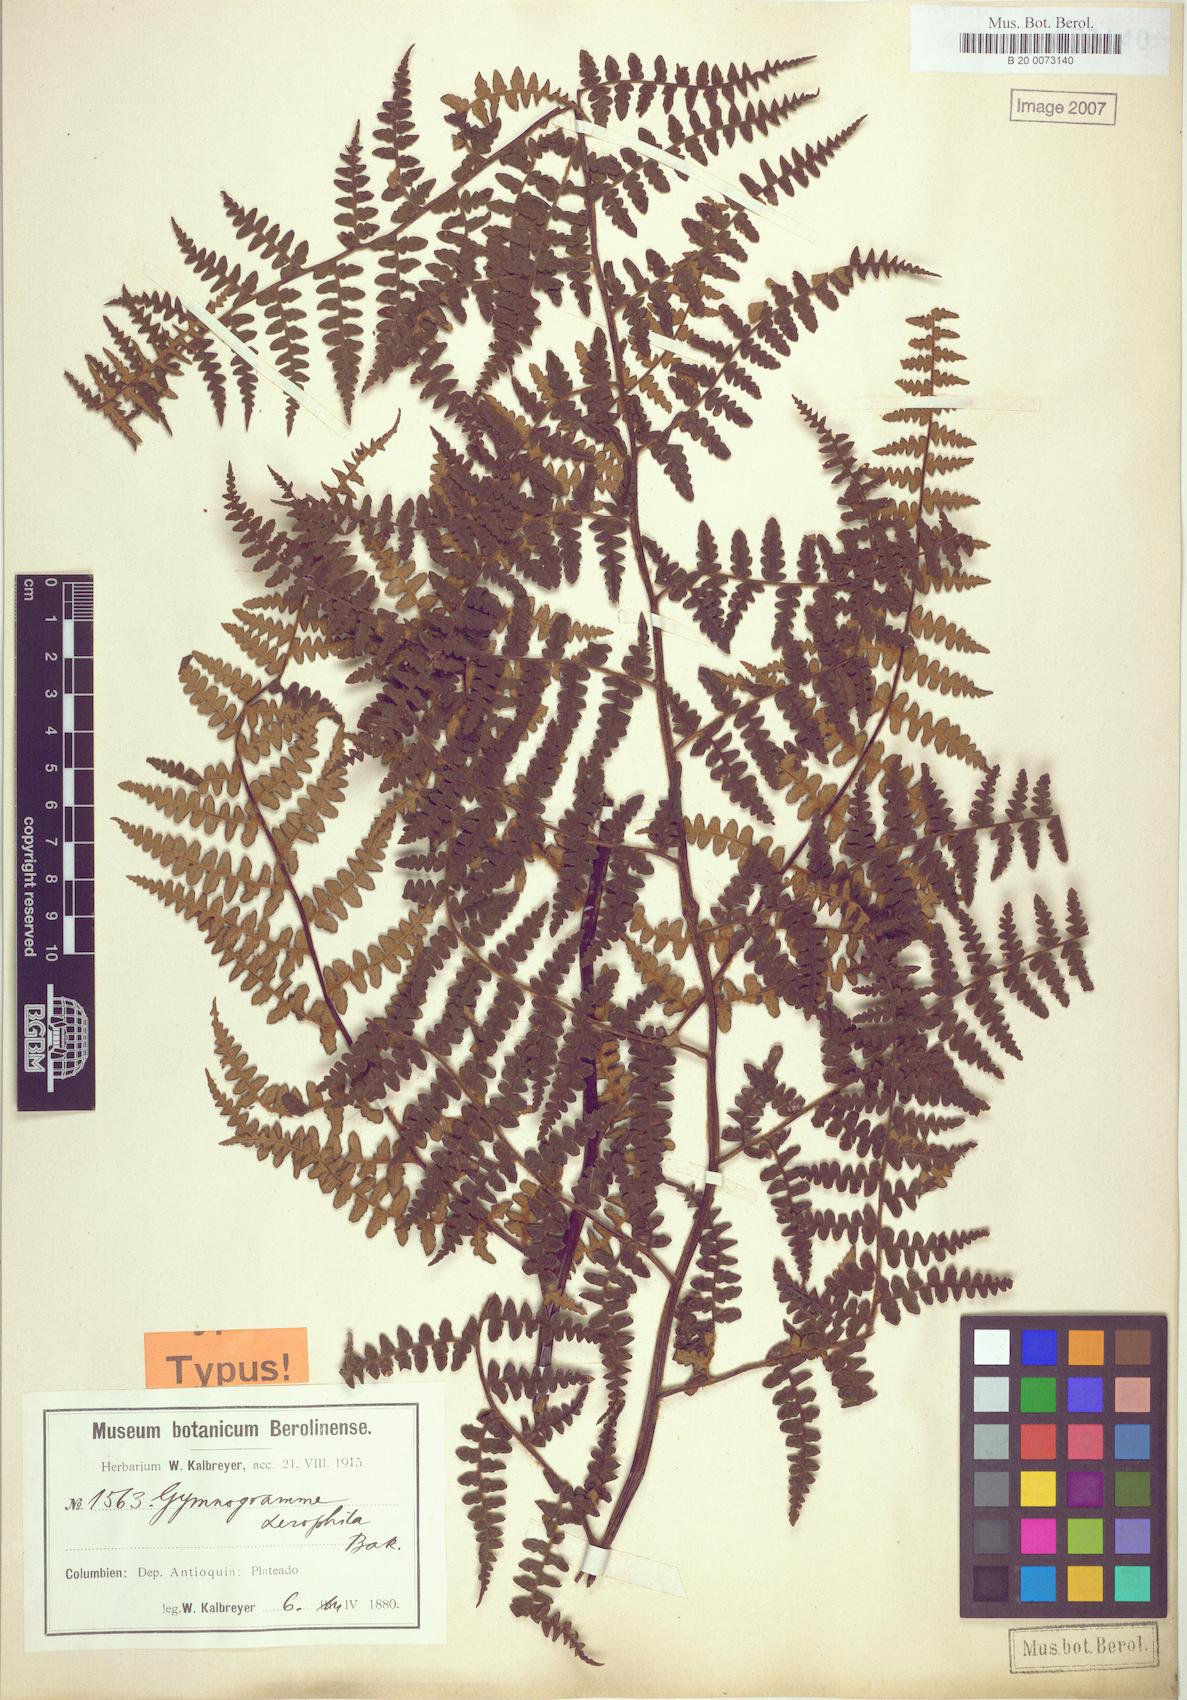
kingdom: Plantae
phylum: Tracheophyta
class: Polypodiopsida
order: Polypodiales
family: Pteridaceae
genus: Pityrogramma
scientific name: Pityrogramma jamesonii
